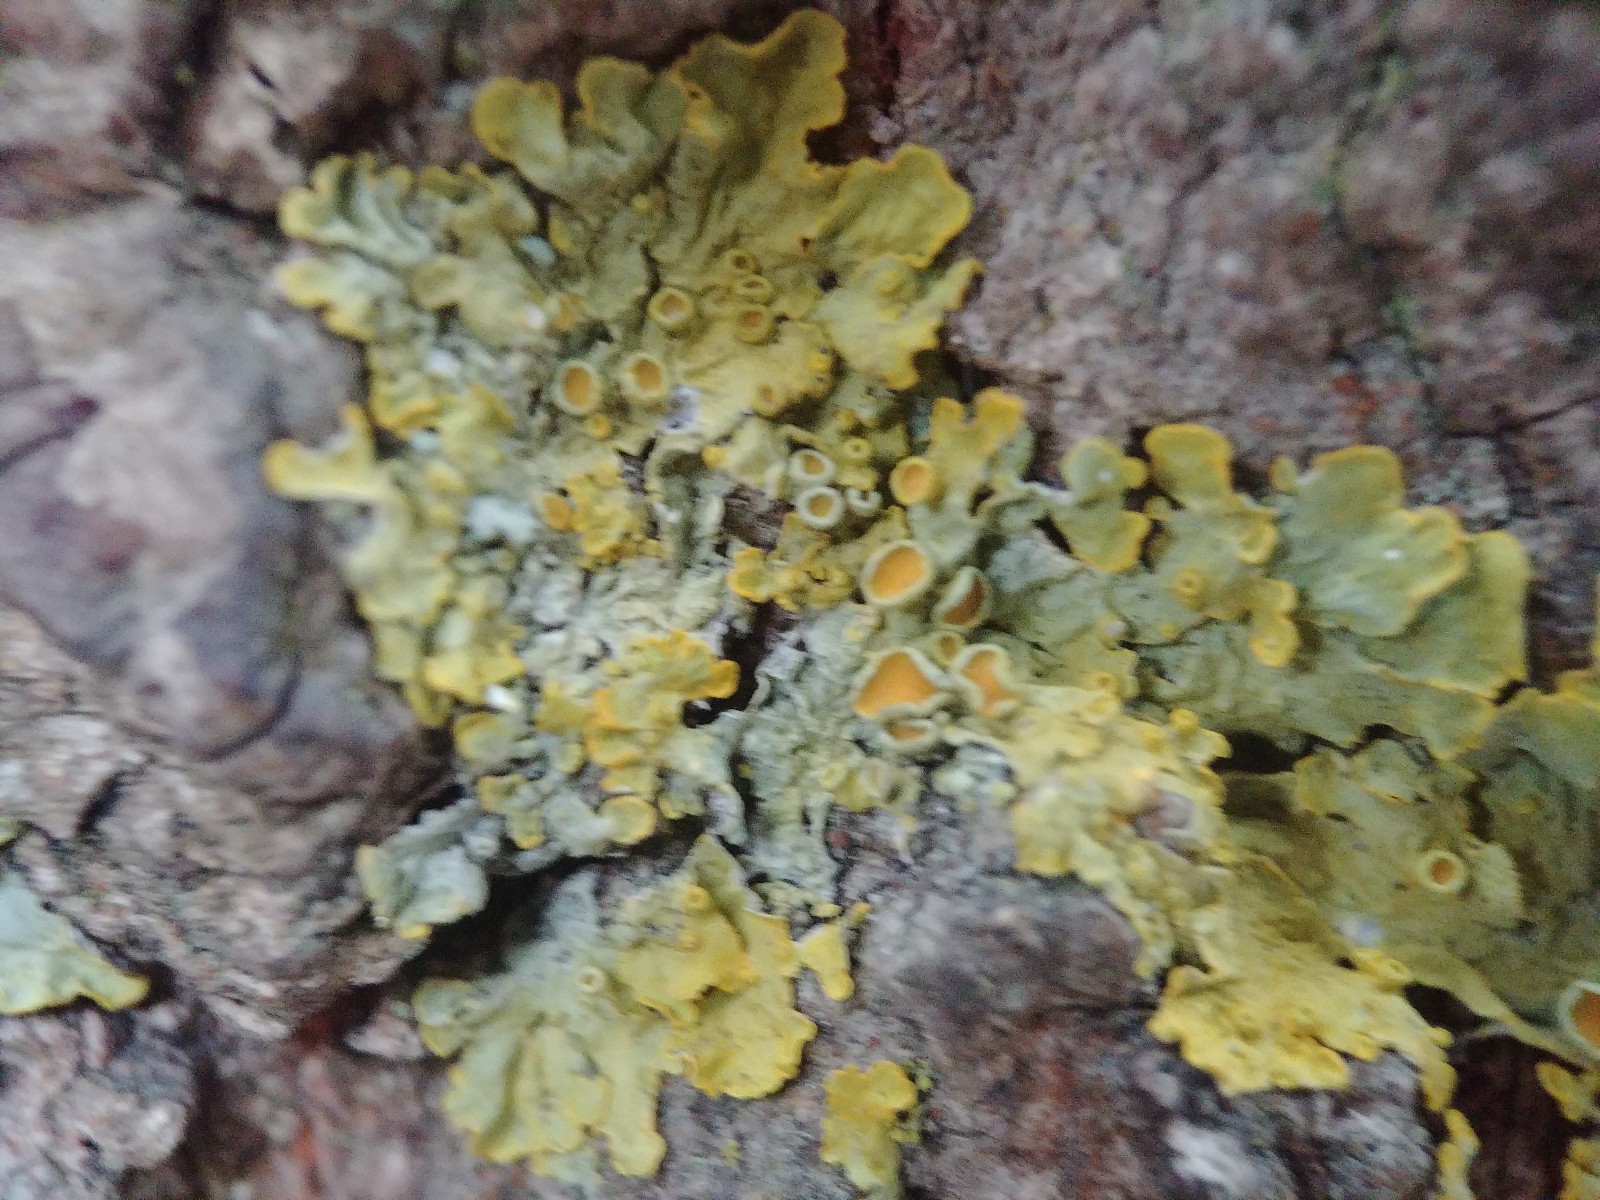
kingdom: Fungi
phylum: Ascomycota
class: Lecanoromycetes
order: Teloschistales
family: Teloschistaceae
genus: Xanthoria
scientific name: Xanthoria parietina
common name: almindelig væggelav
